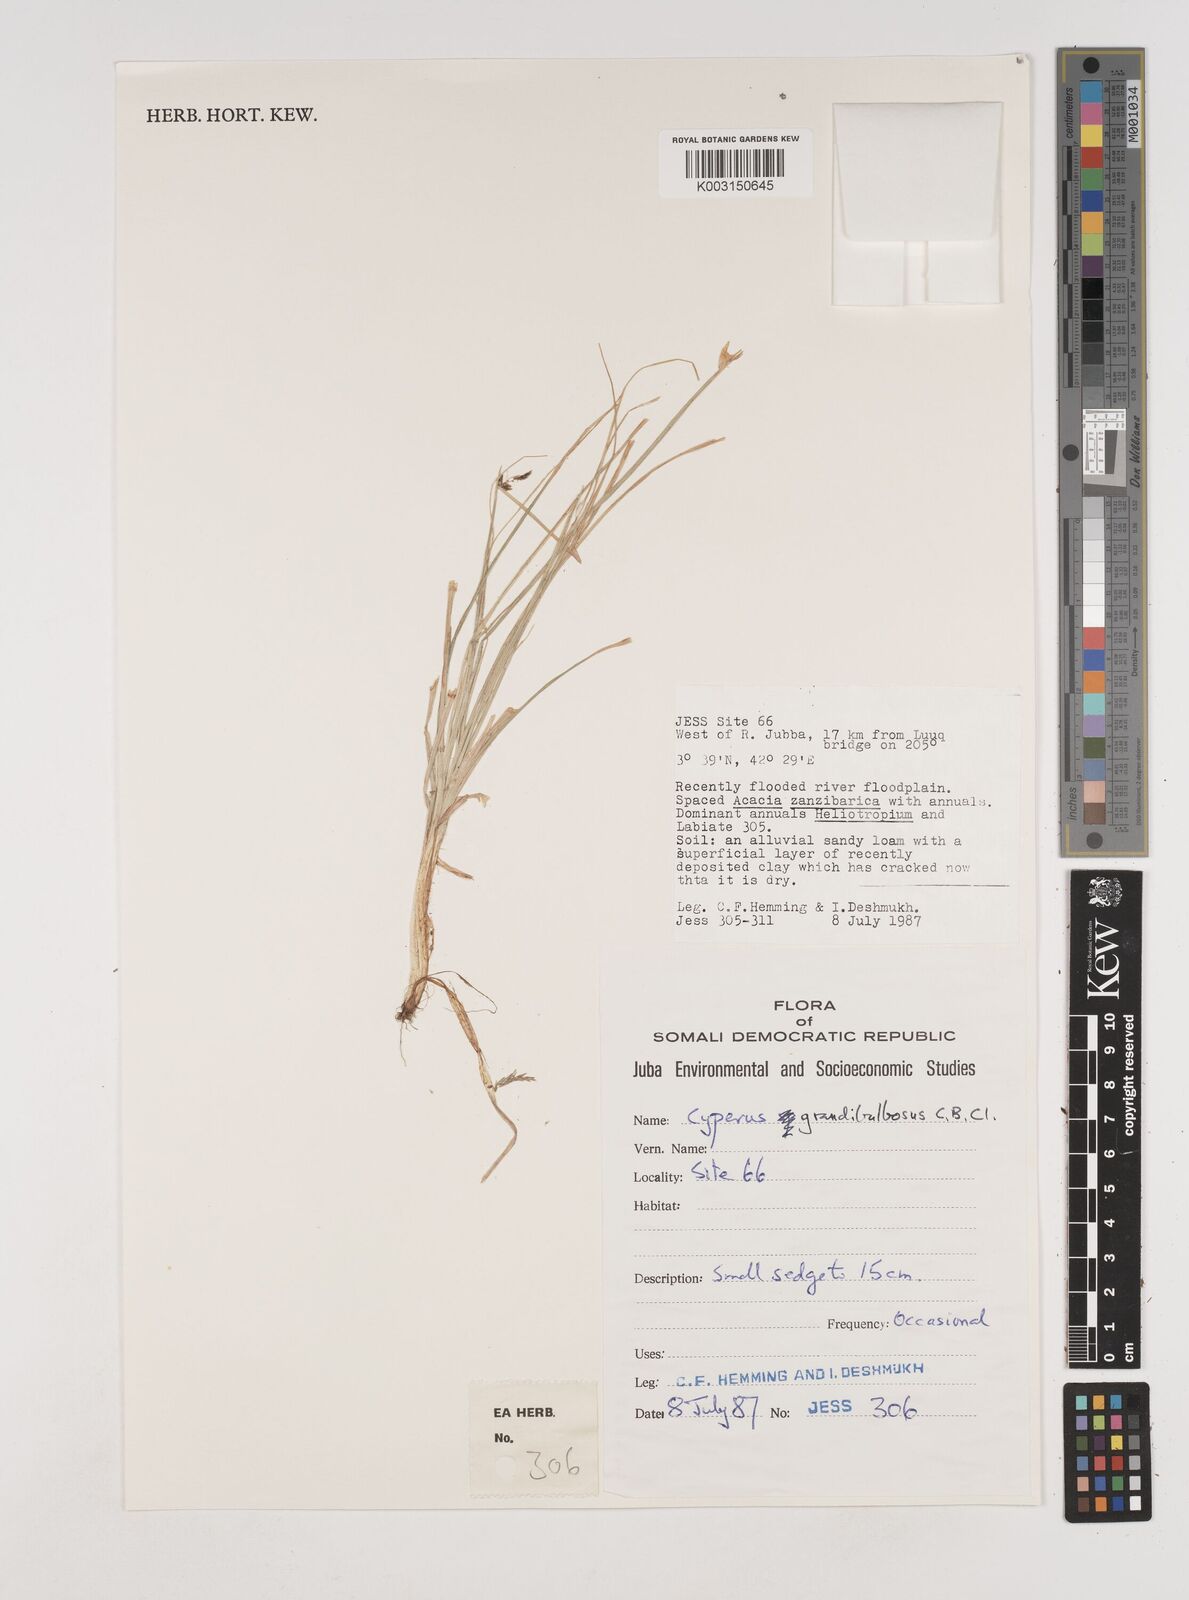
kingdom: Plantae
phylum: Tracheophyta
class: Liliopsida
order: Poales
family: Cyperaceae
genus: Cyperus
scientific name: Cyperus bulbosus
